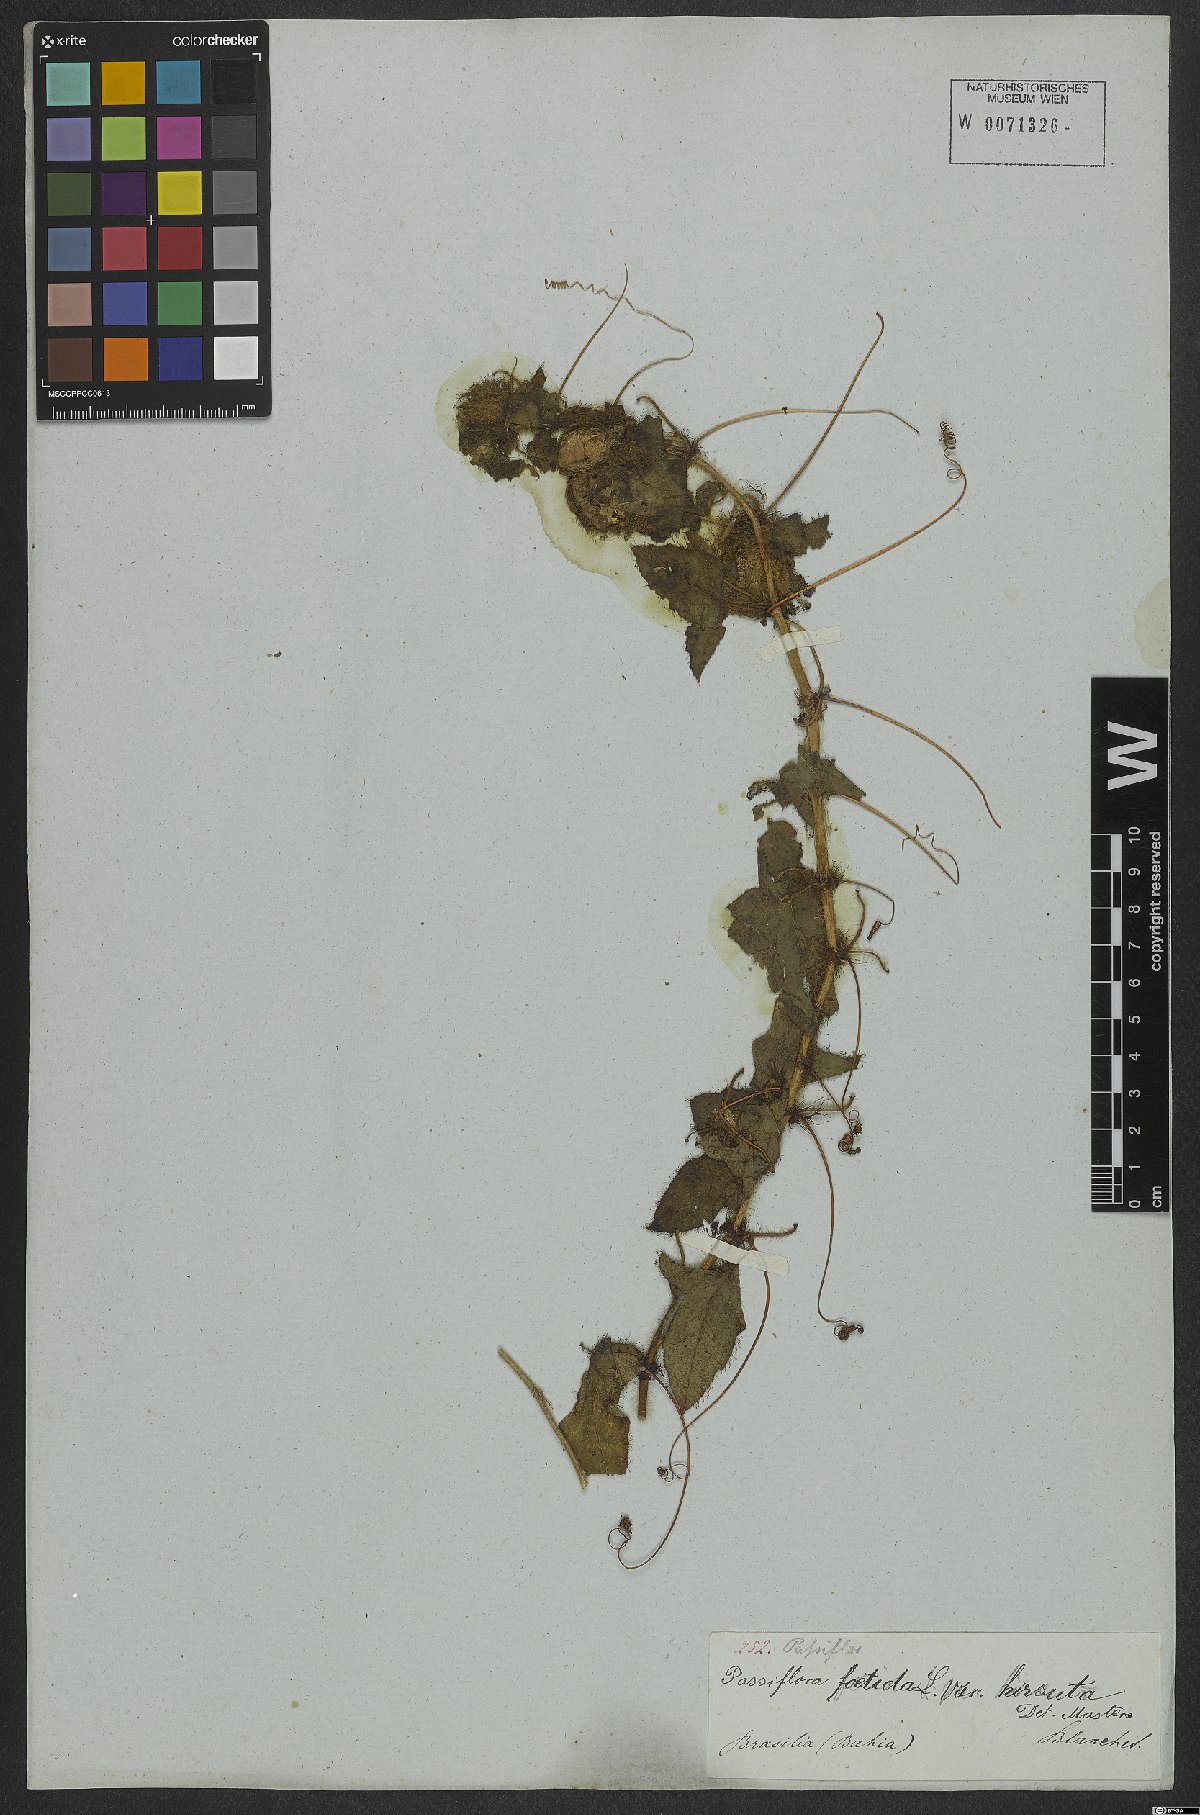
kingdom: Plantae
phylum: Tracheophyta
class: Magnoliopsida
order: Malpighiales
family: Passifloraceae
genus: Passiflora
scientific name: Passiflora foetida
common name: Fetid passionflower
